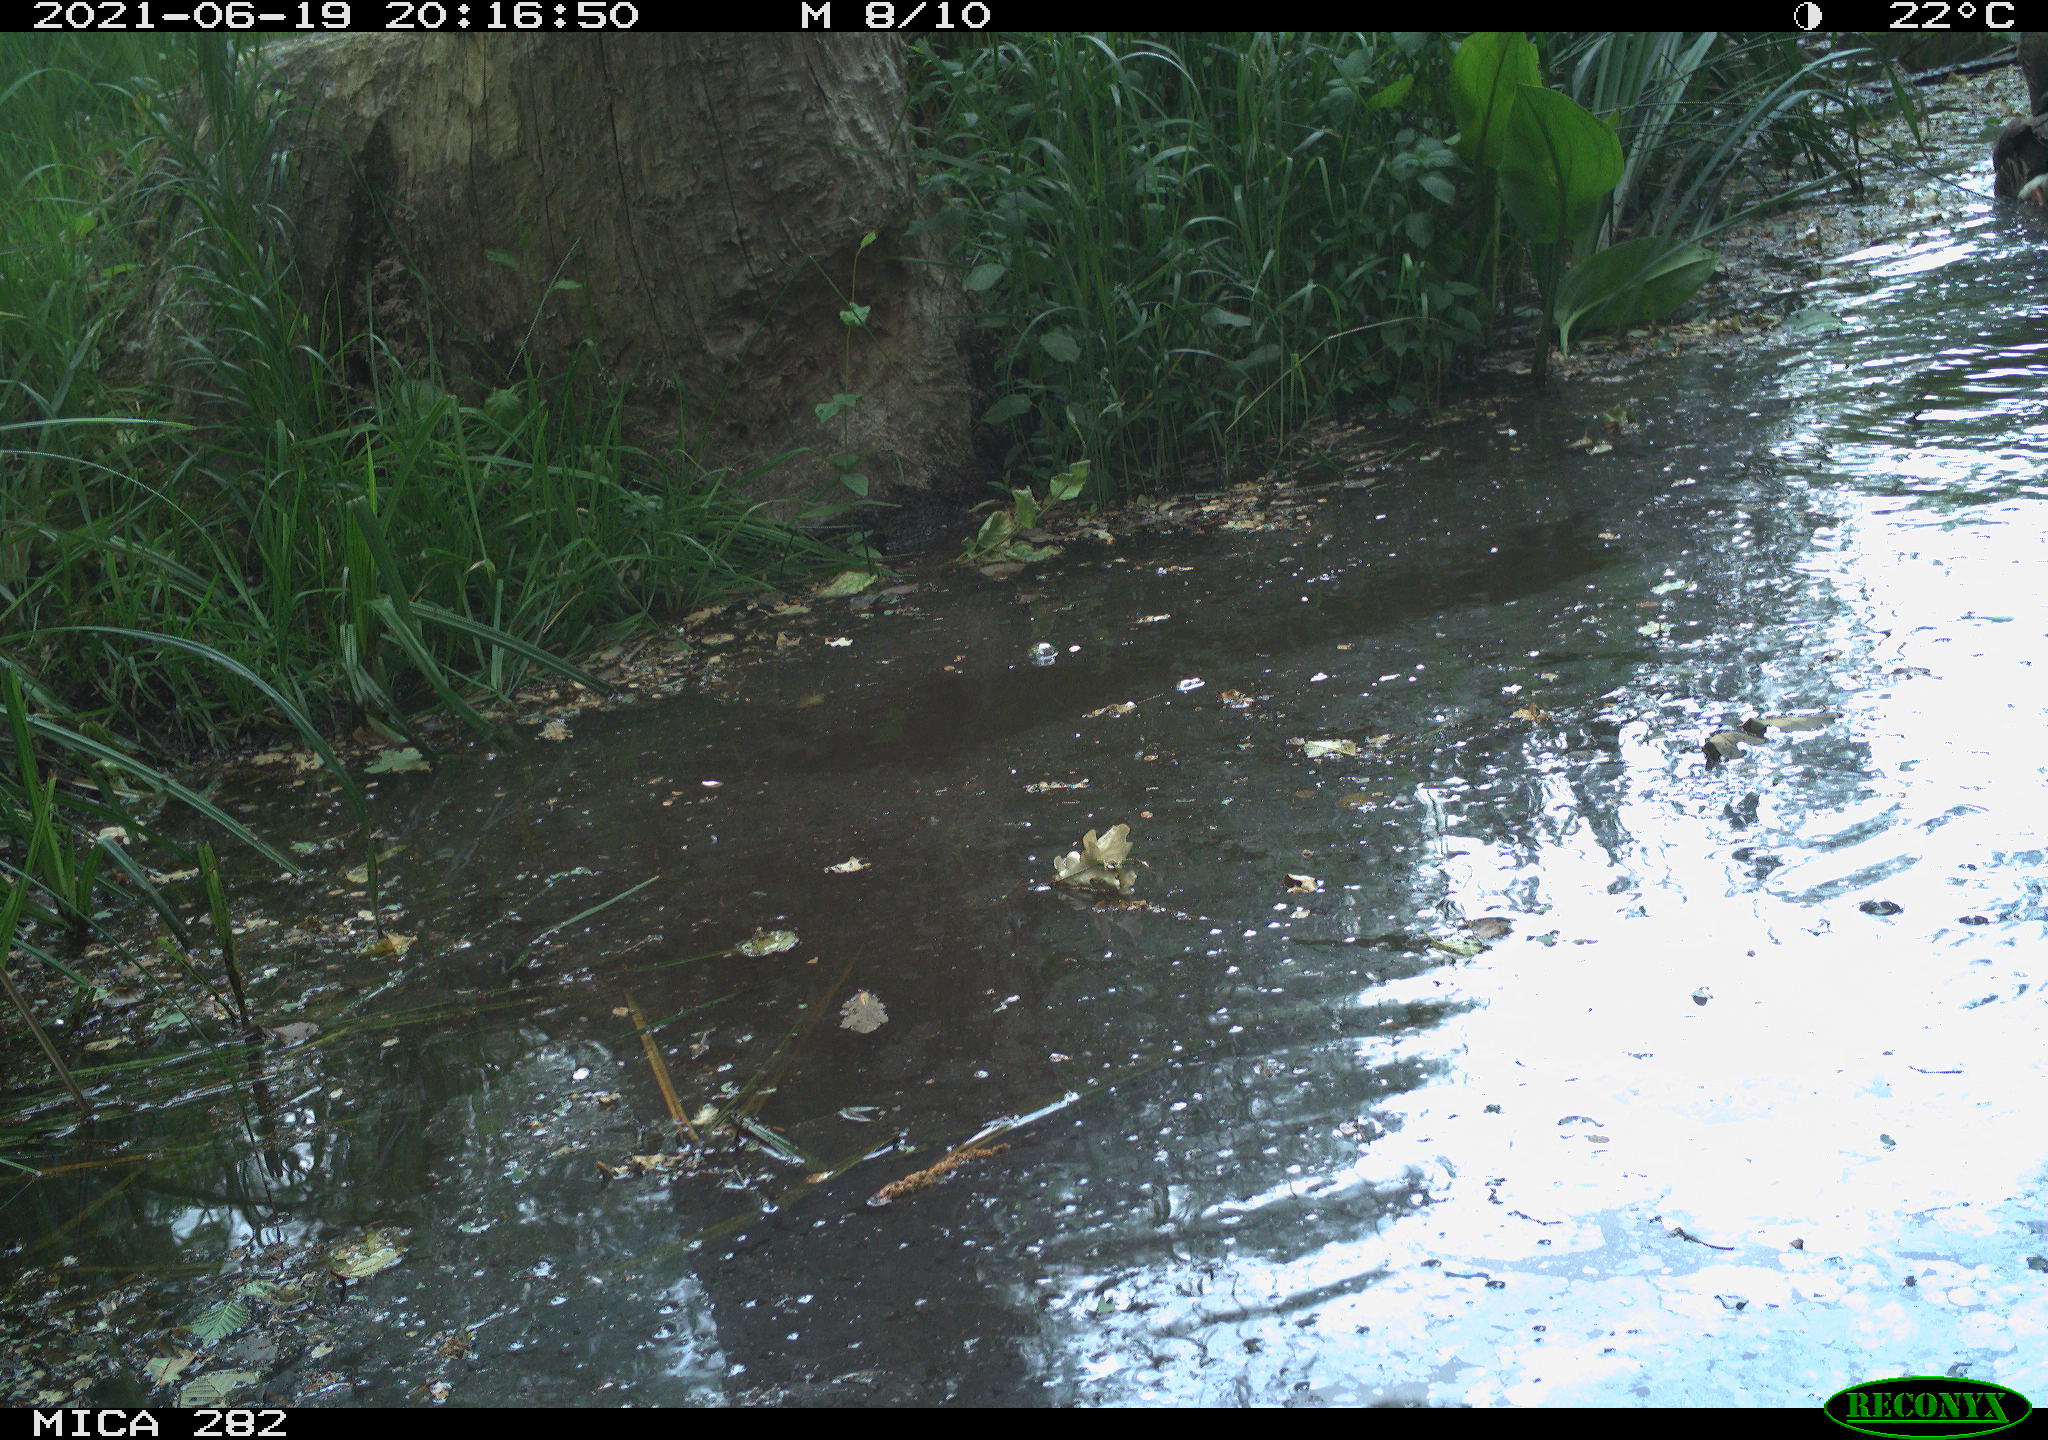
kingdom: Animalia
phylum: Chordata
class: Aves
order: Anseriformes
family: Anatidae
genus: Anser
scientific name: Anser anser
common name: Greylag goose
